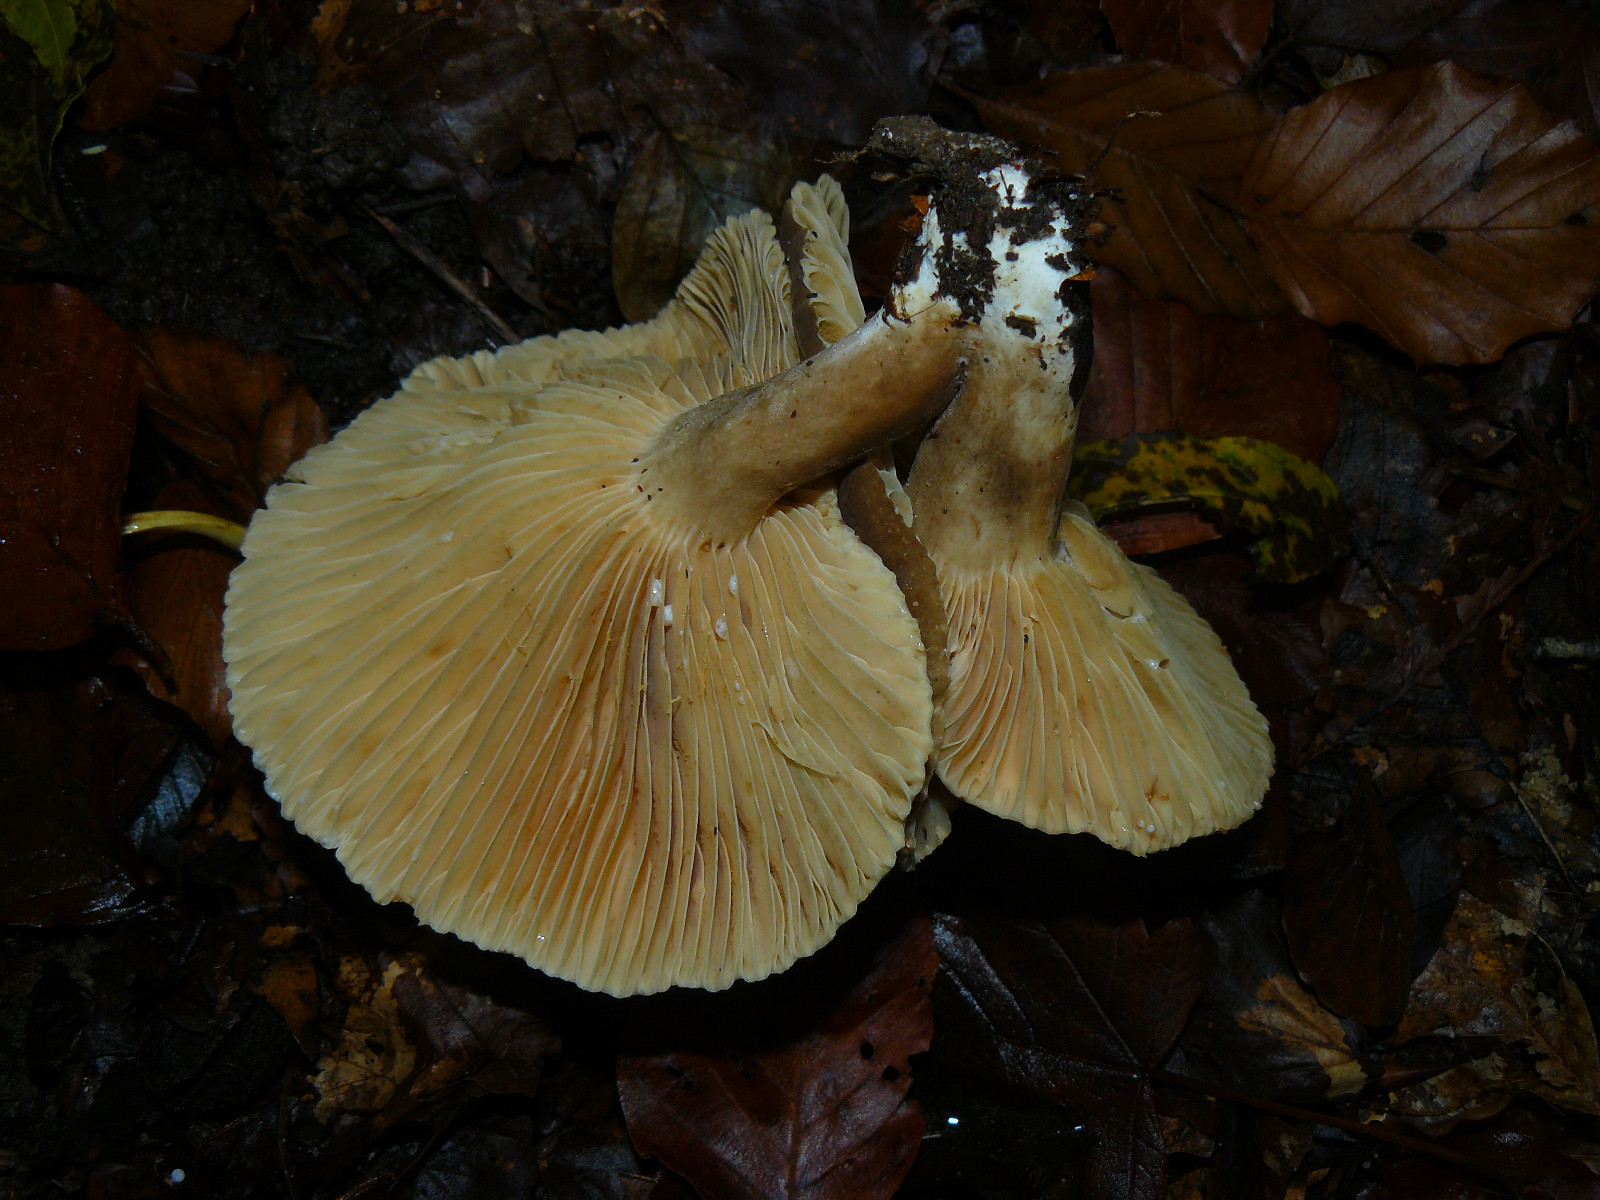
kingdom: Fungi
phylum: Basidiomycota
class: Agaricomycetes
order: Russulales
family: Russulaceae
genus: Lactarius
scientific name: Lactarius romagnesii
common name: fjernbladet mælkehat
